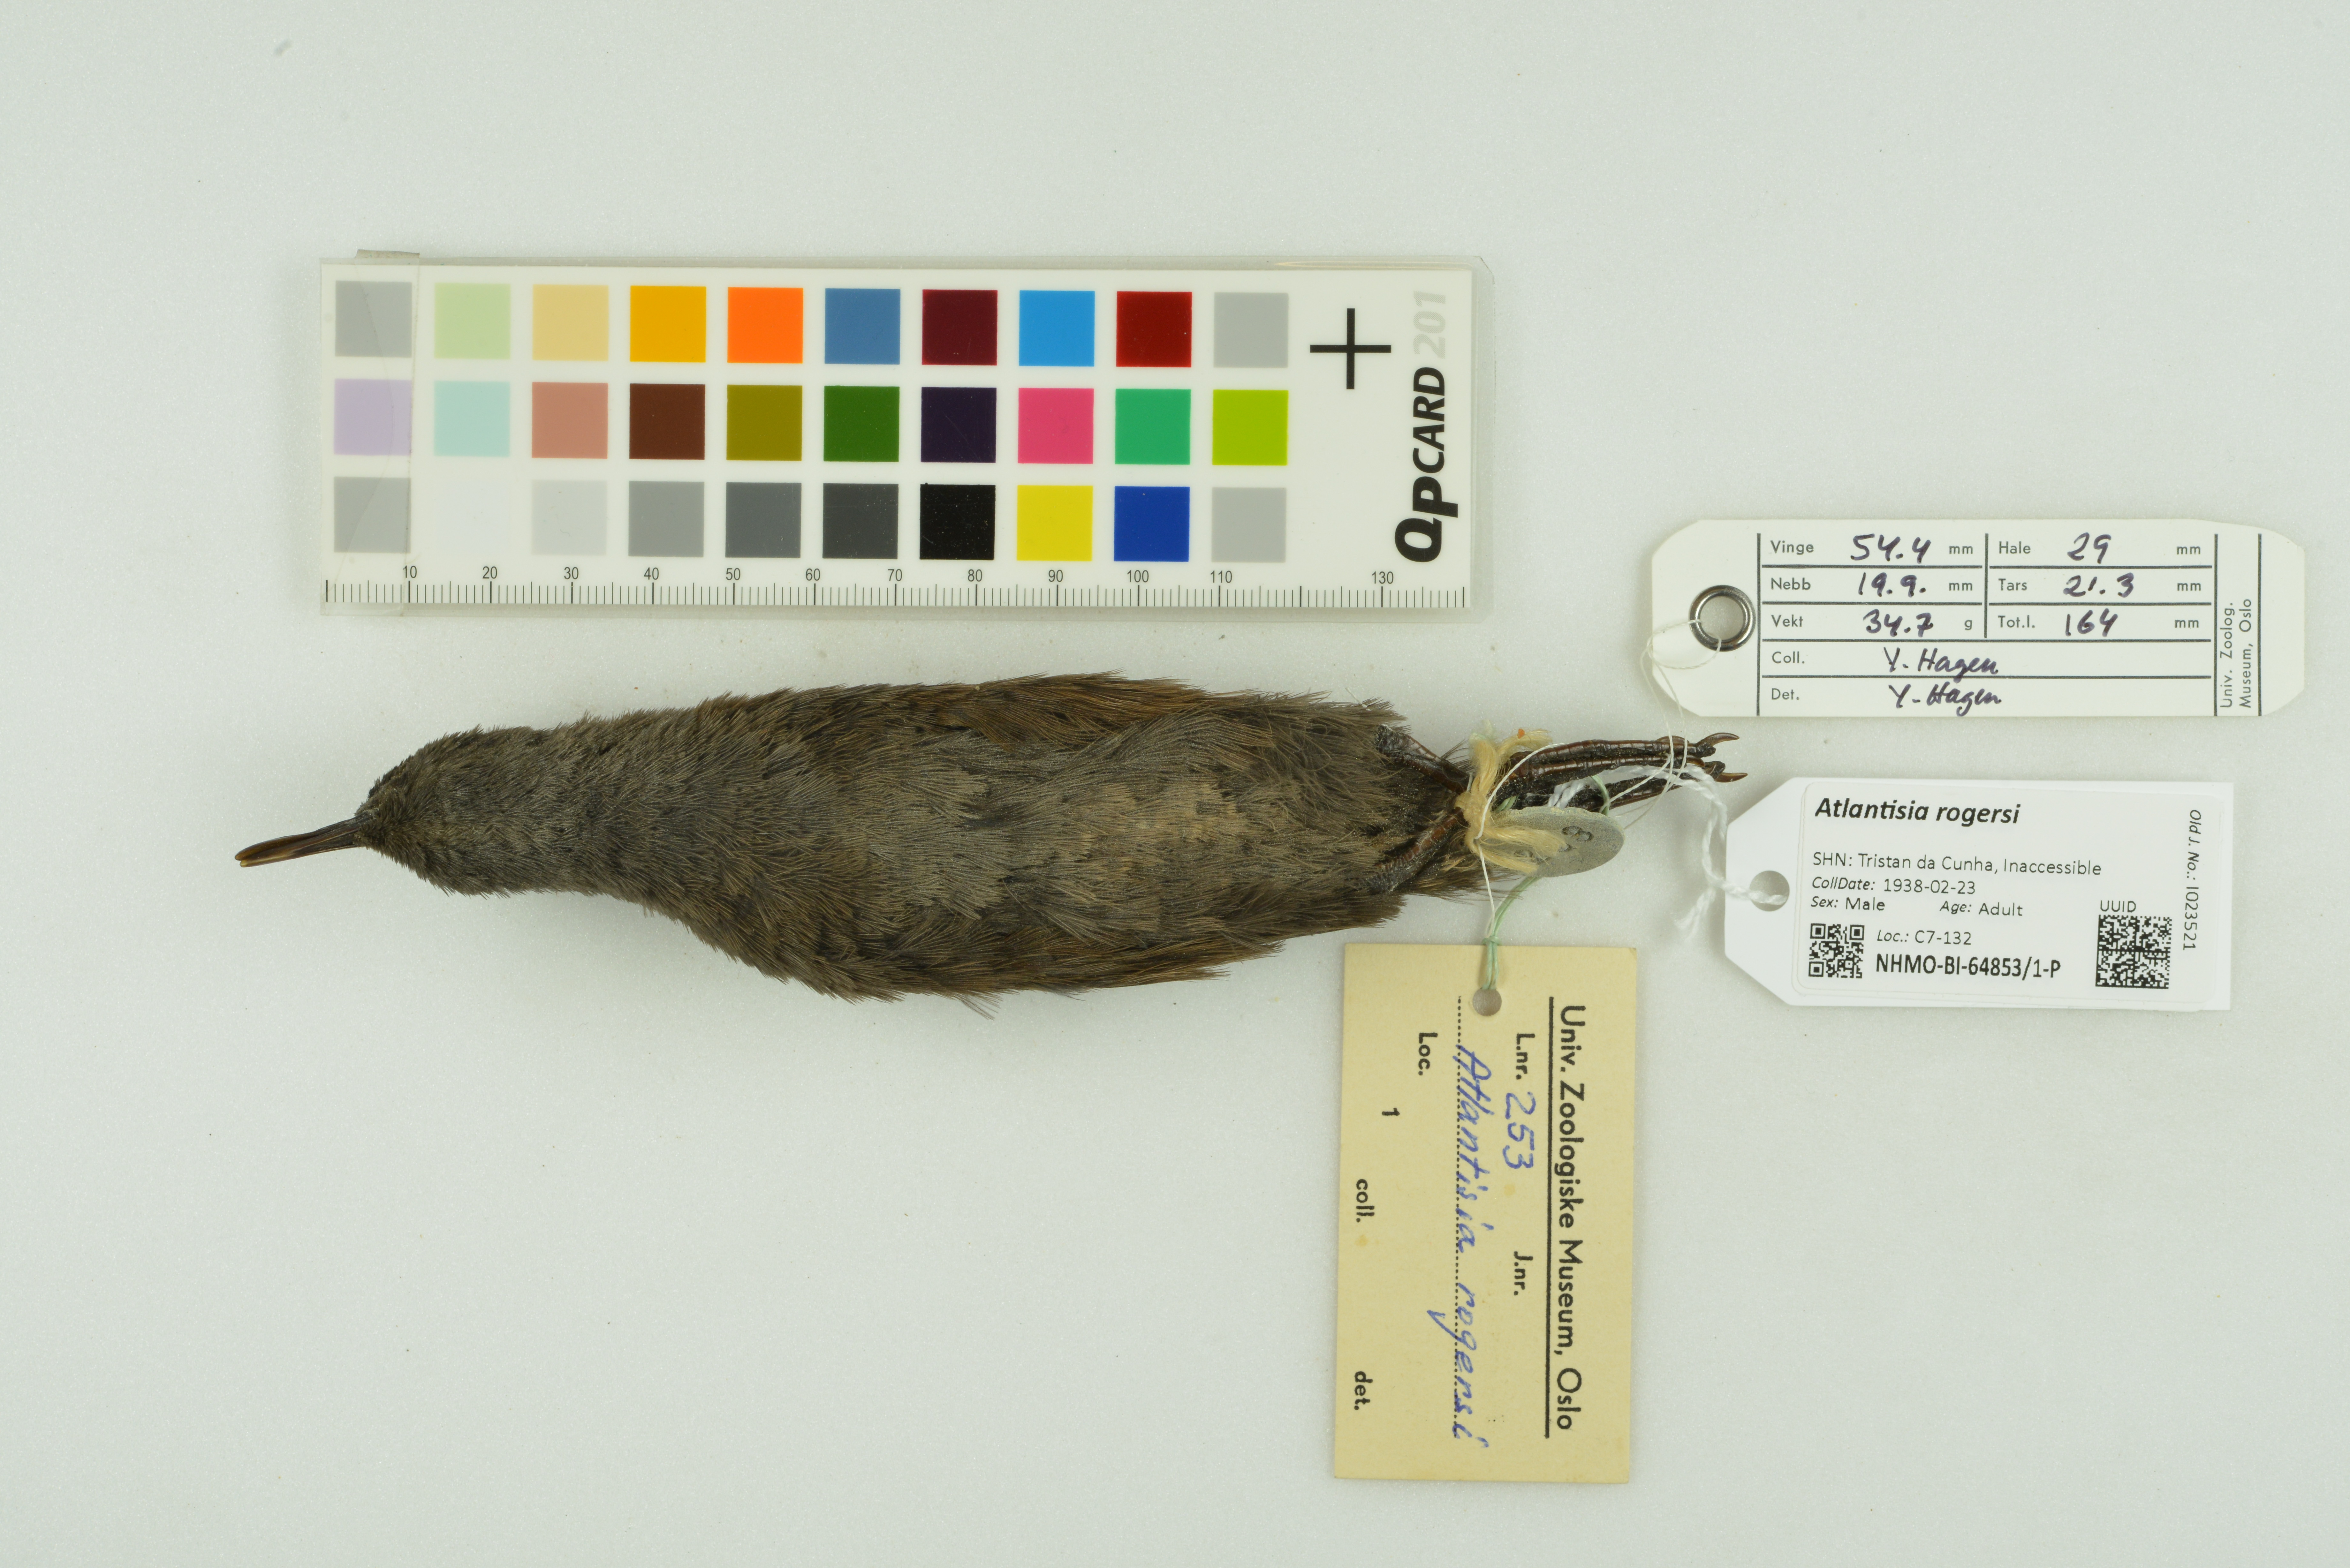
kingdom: Animalia
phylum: Chordata
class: Aves
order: Gruiformes
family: Rallidae
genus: Atlantisia
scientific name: Atlantisia rogersi
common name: Inaccessible island rail
